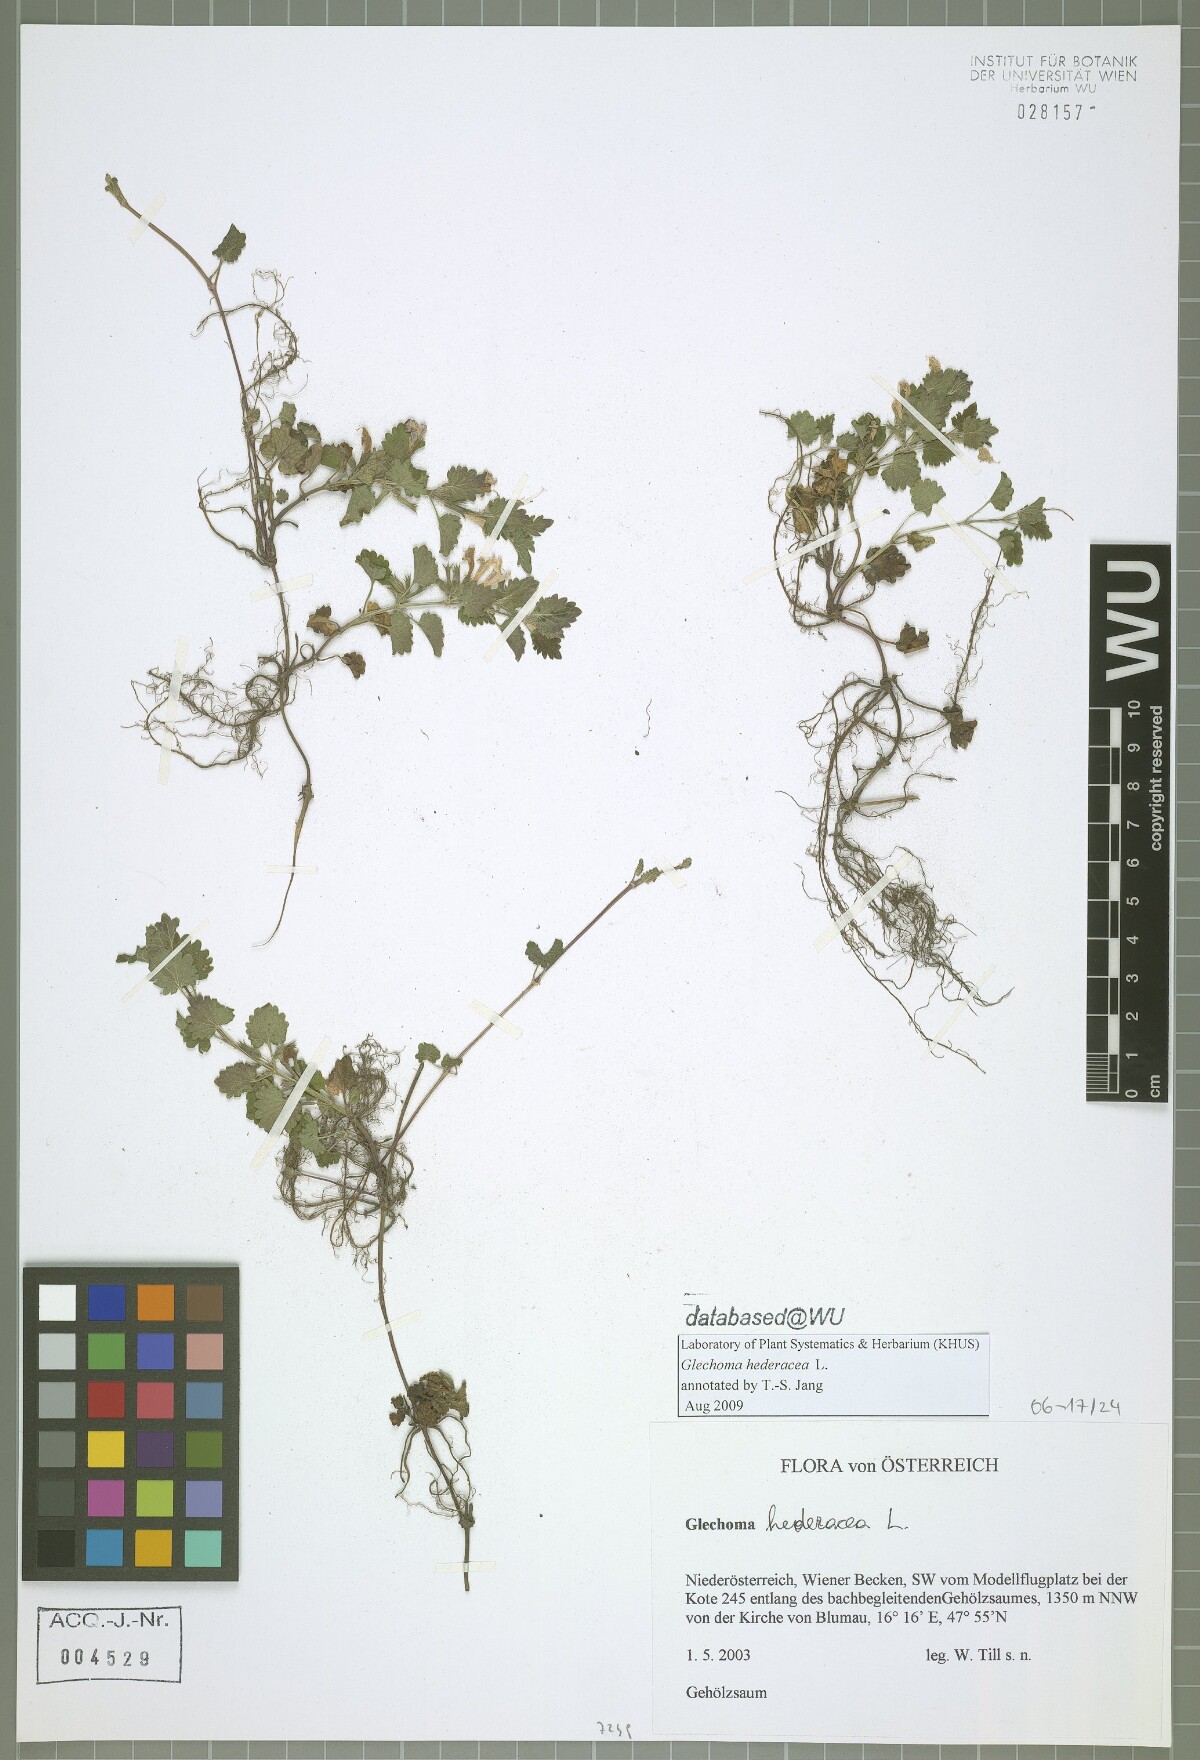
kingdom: Plantae
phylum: Tracheophyta
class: Magnoliopsida
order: Lamiales
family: Lamiaceae
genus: Glechoma
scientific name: Glechoma hederacea
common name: Ground ivy
